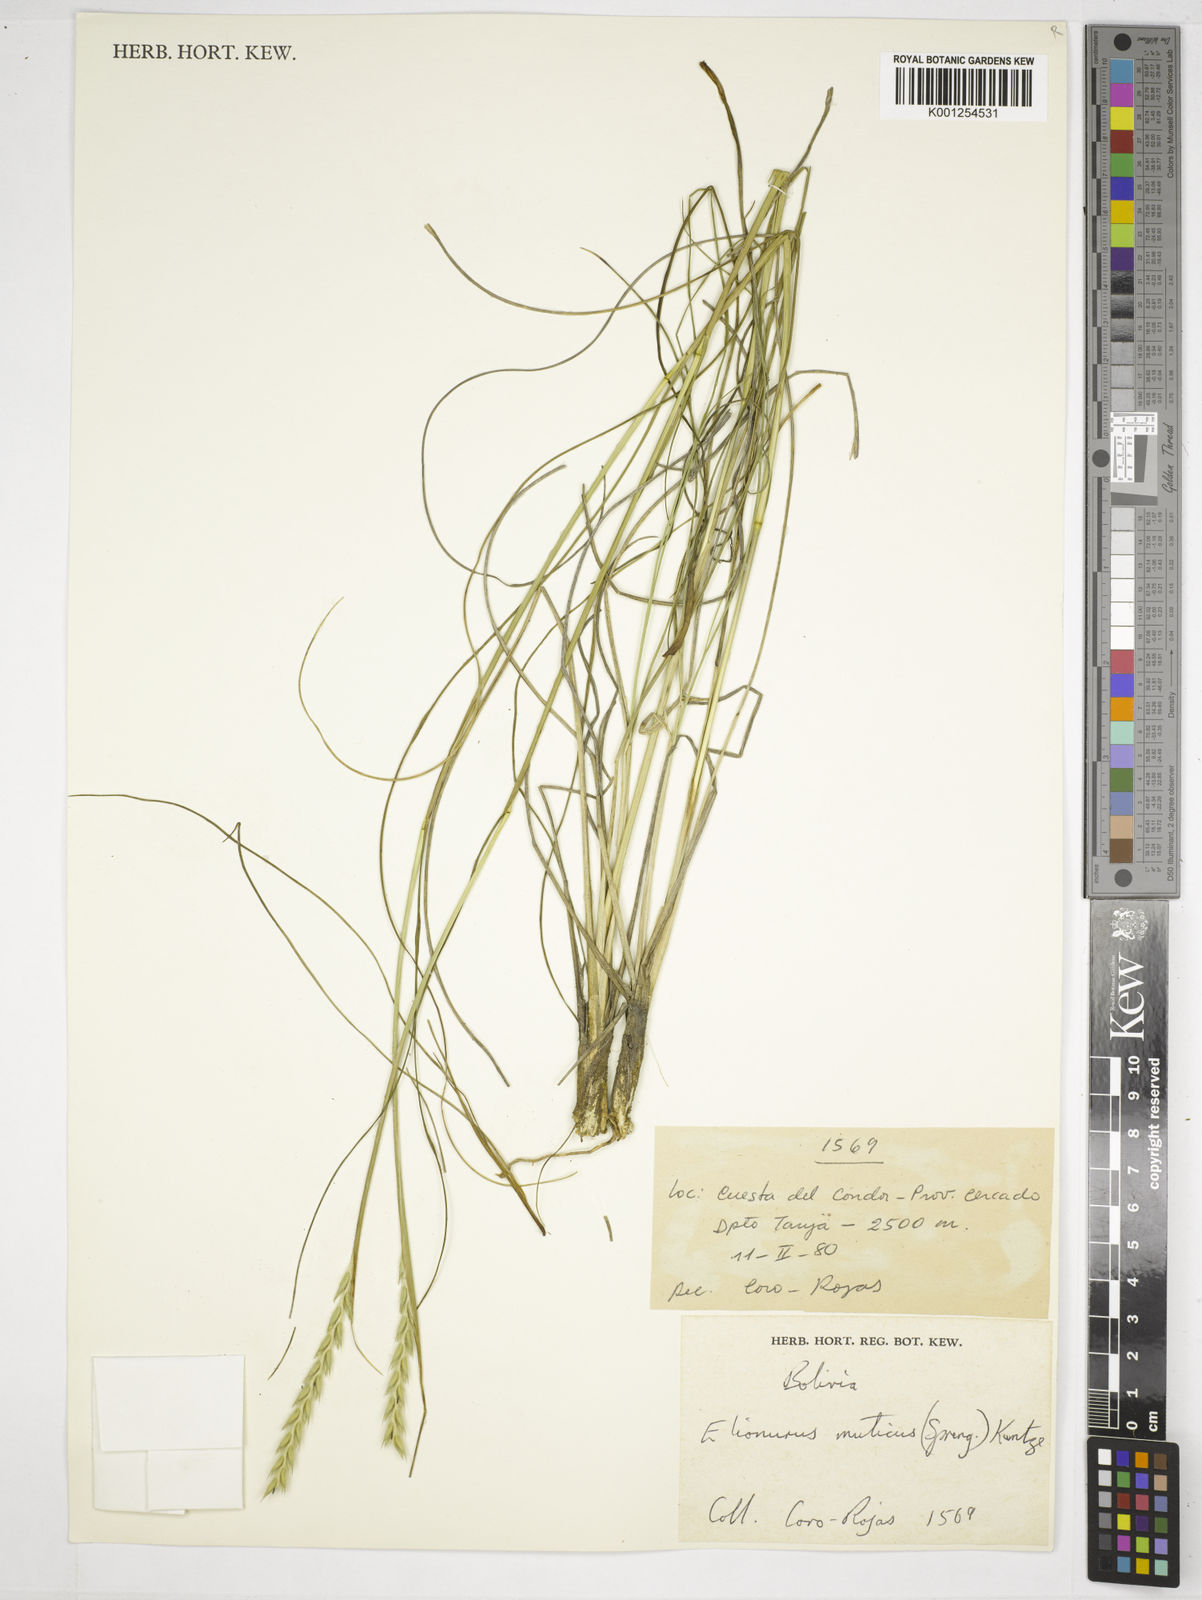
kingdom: Plantae
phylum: Tracheophyta
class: Liliopsida
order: Poales
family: Poaceae
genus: Elionurus
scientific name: Elionurus muticus
